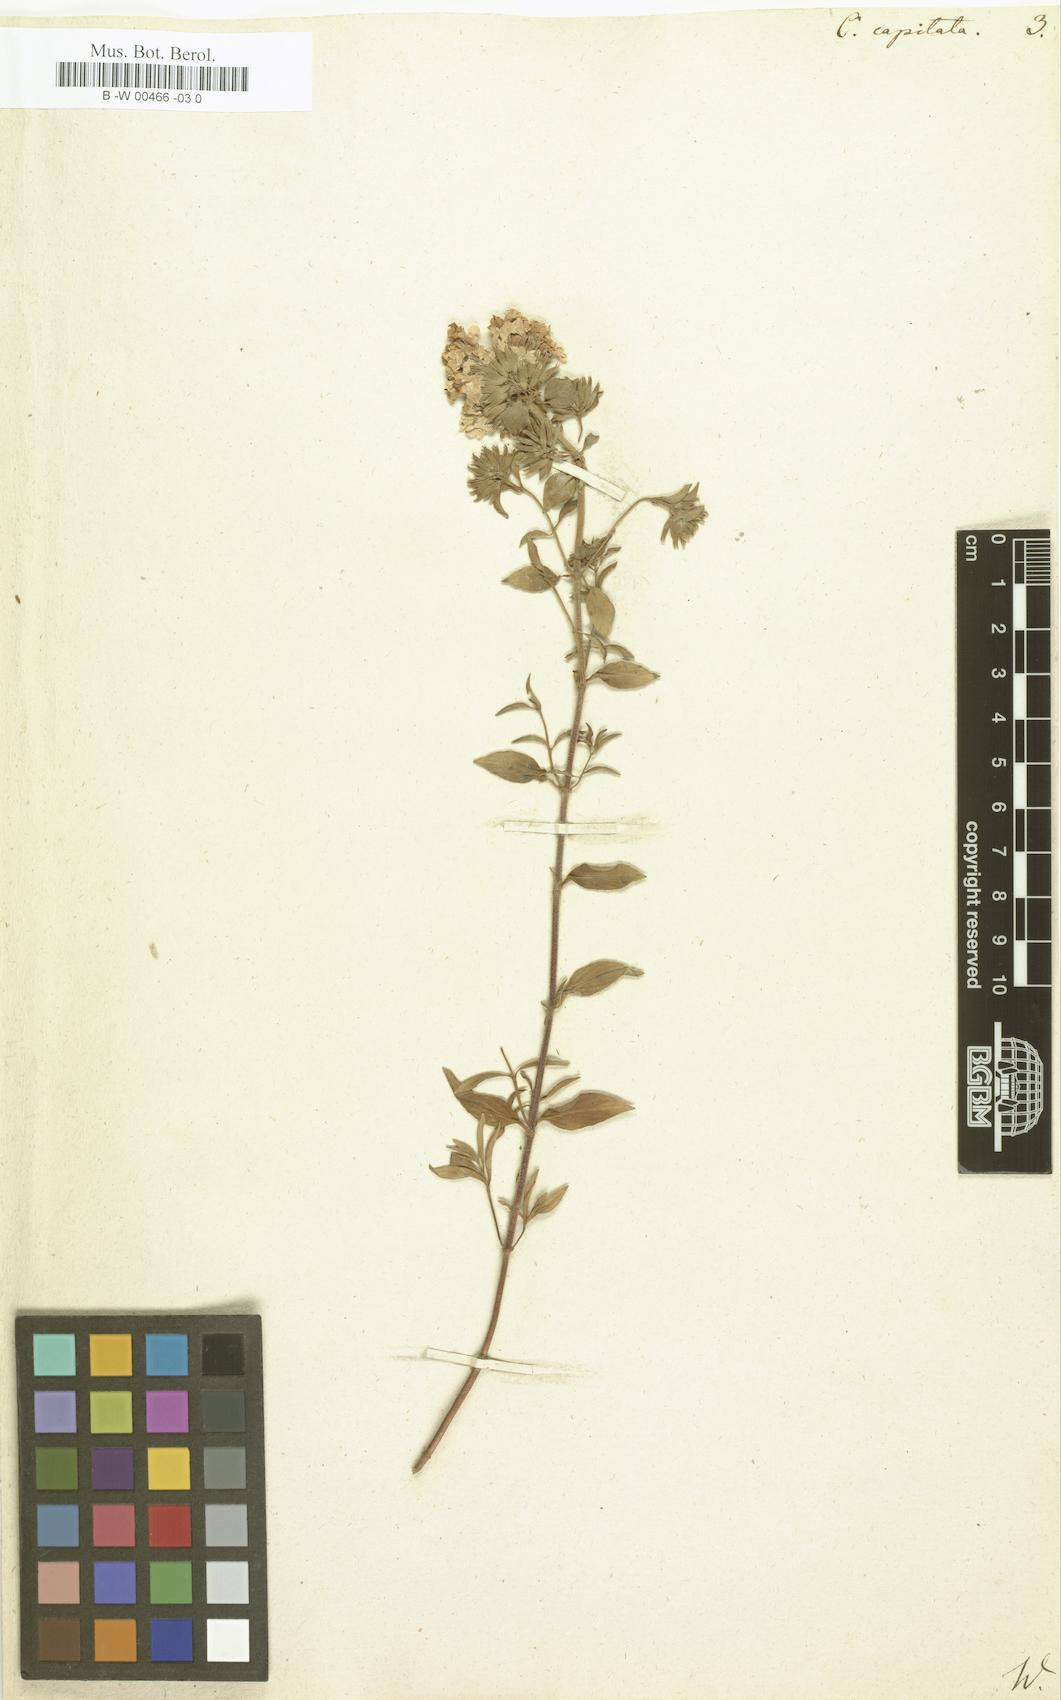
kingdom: Plantae
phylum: Tracheophyta
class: Magnoliopsida
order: Lamiales
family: Lamiaceae
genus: Ziziphora
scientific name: Ziziphora capitata
